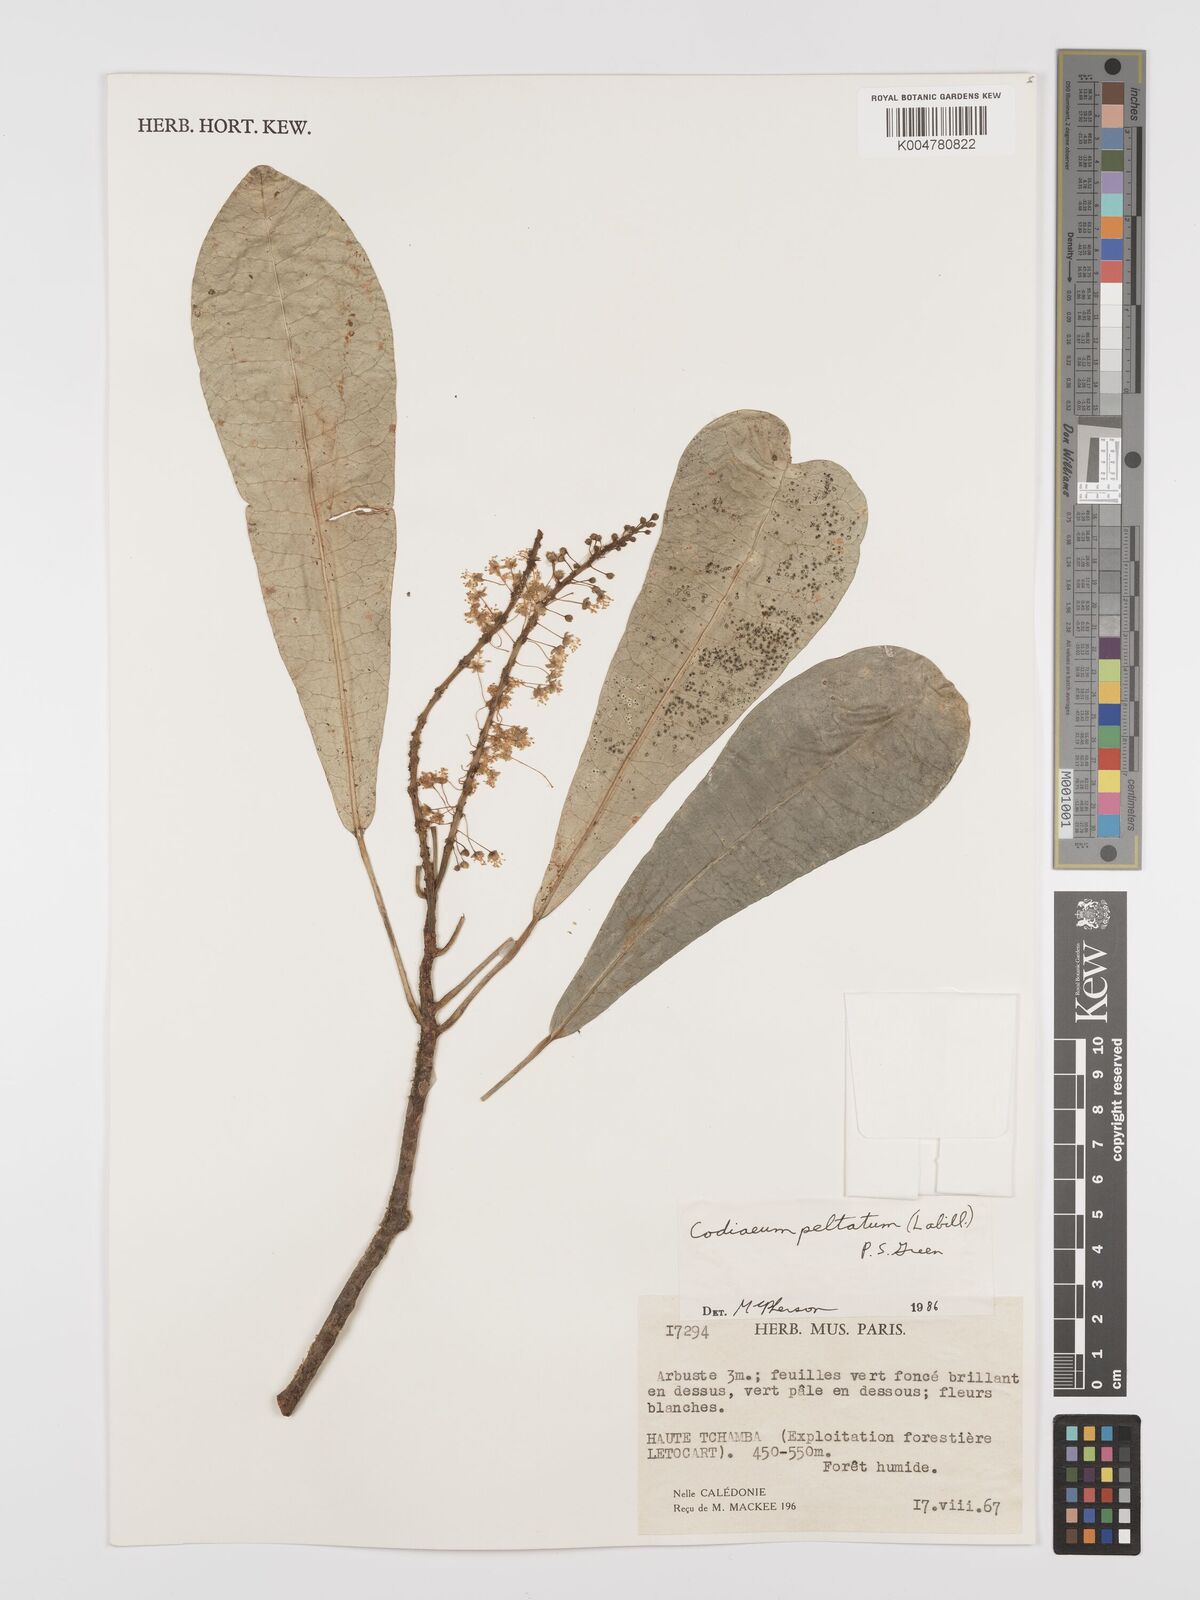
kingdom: Plantae
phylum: Tracheophyta
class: Magnoliopsida
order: Malpighiales
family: Euphorbiaceae
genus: Codiaeum
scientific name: Codiaeum peltatum
